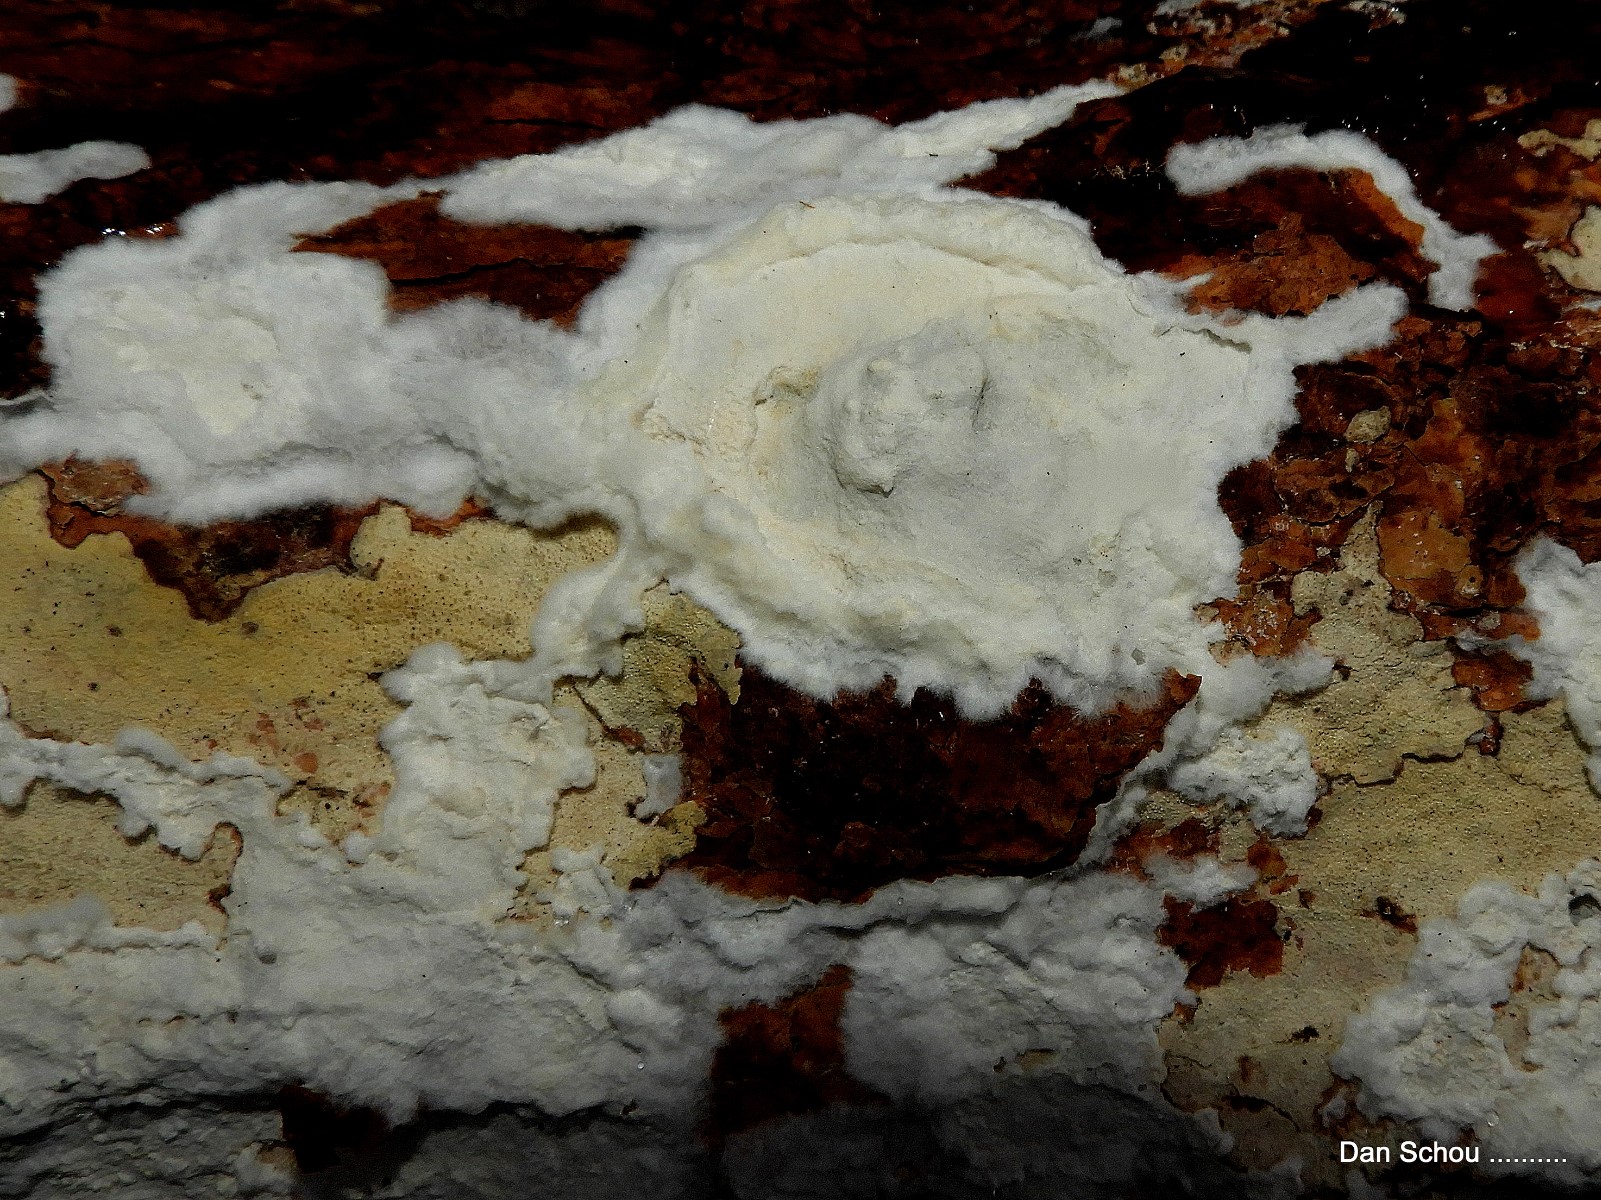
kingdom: Fungi
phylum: Basidiomycota
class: Agaricomycetes
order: Corticiales
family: Corticiaceae
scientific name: Corticiaceae
